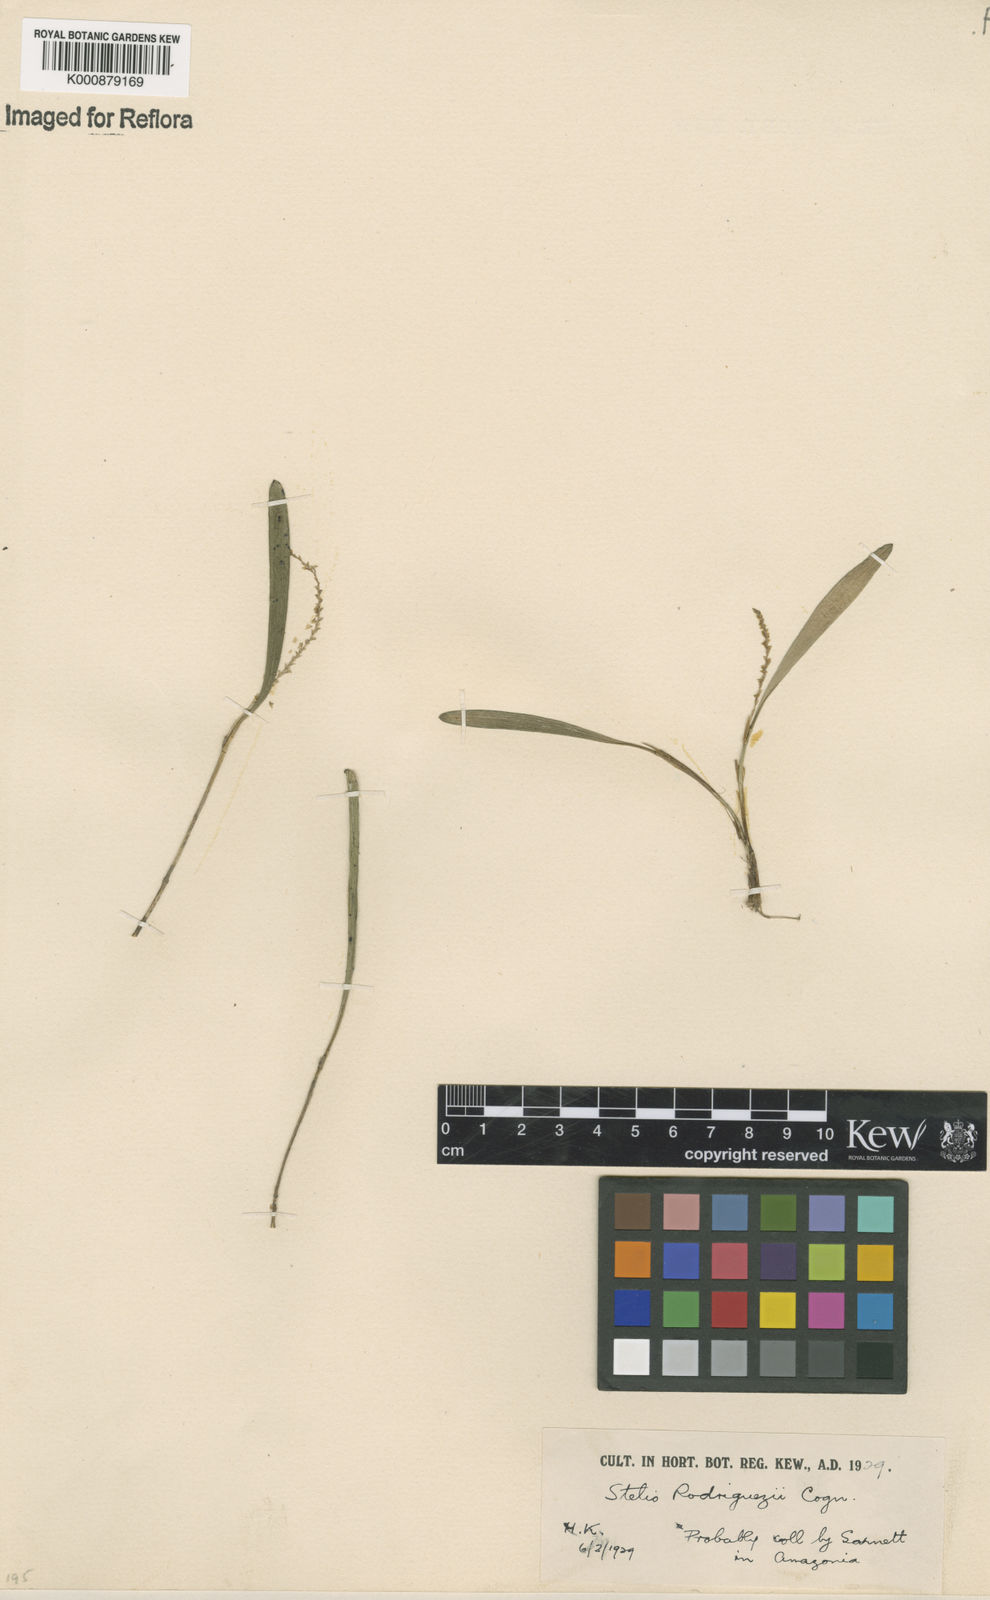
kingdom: Plantae
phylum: Tracheophyta
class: Liliopsida
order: Asparagales
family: Orchidaceae
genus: Stelis
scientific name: Stelis aprica
